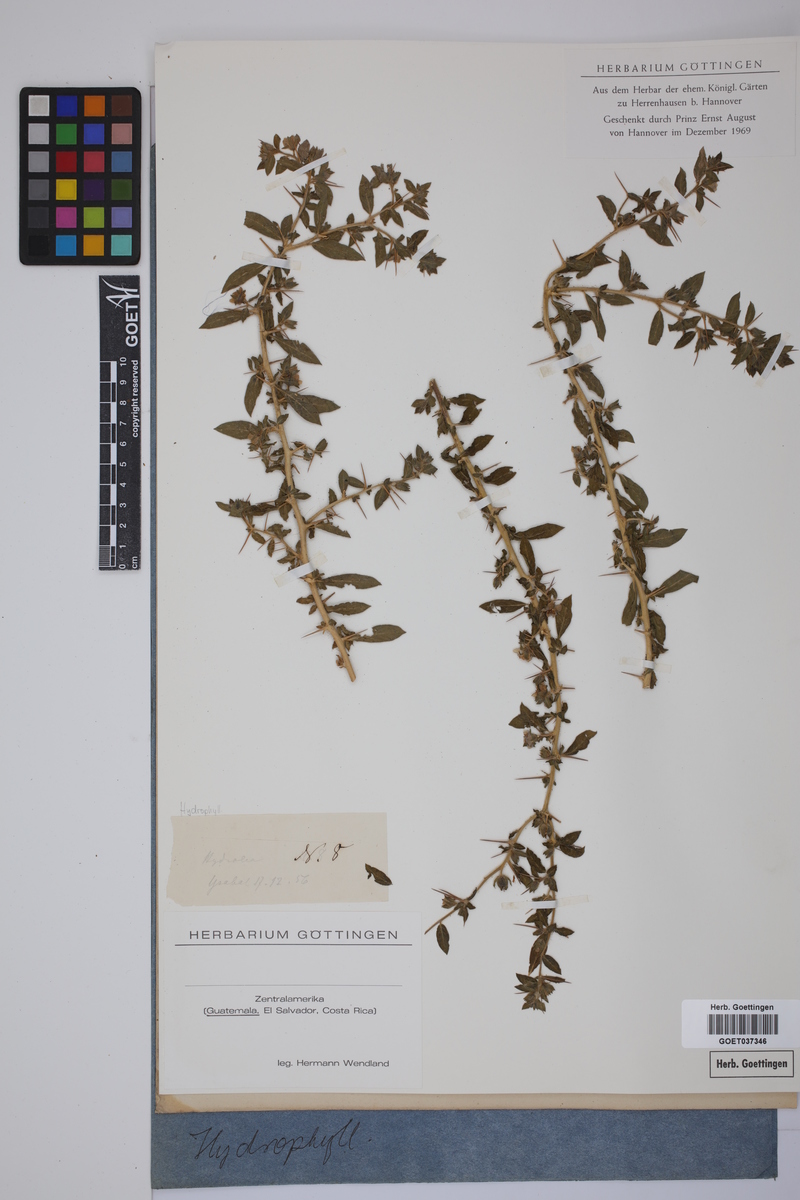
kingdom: Plantae
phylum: Tracheophyta
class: Magnoliopsida
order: Solanales
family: Hydroleaceae
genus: Hydrolea
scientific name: Hydrolea
